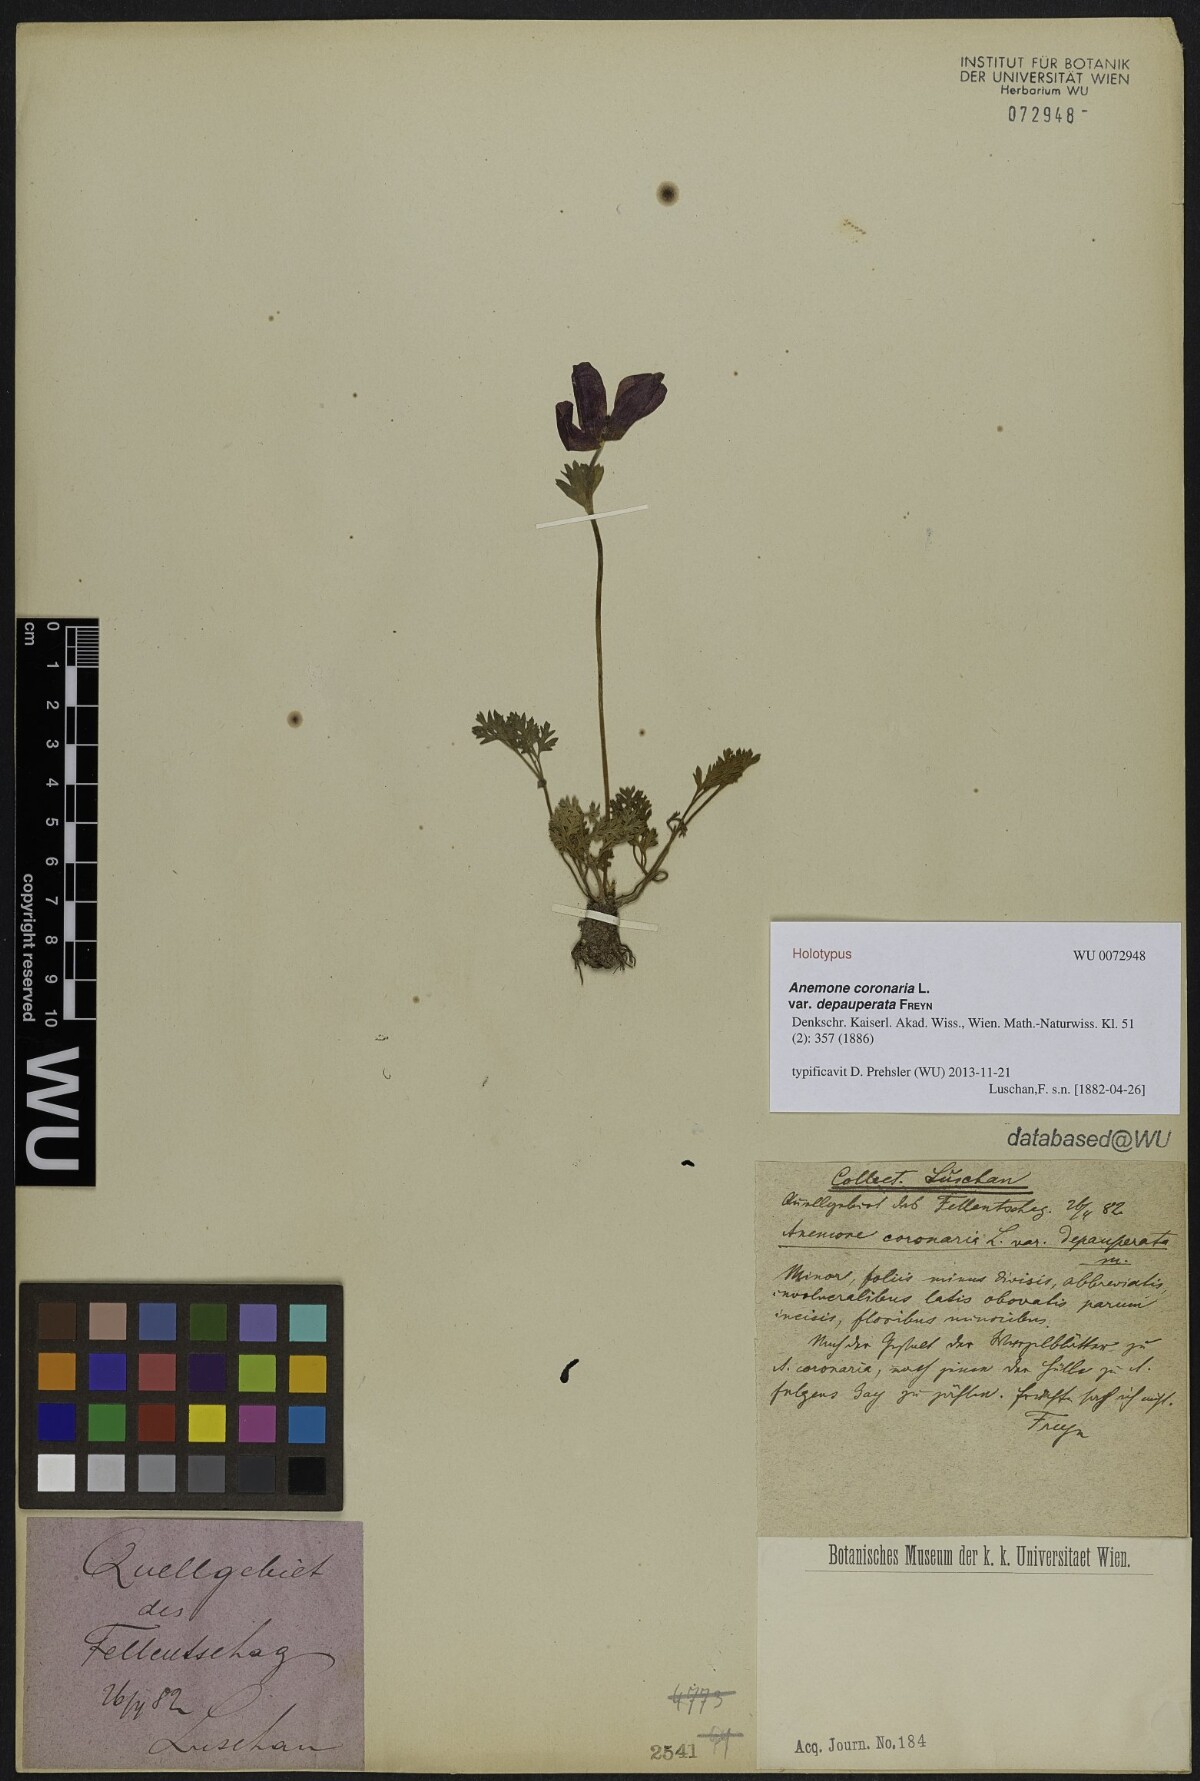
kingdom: Plantae
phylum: Tracheophyta
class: Magnoliopsida
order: Ranunculales
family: Ranunculaceae
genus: Anemone
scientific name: Anemone coronaria
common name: Poppy anemone
